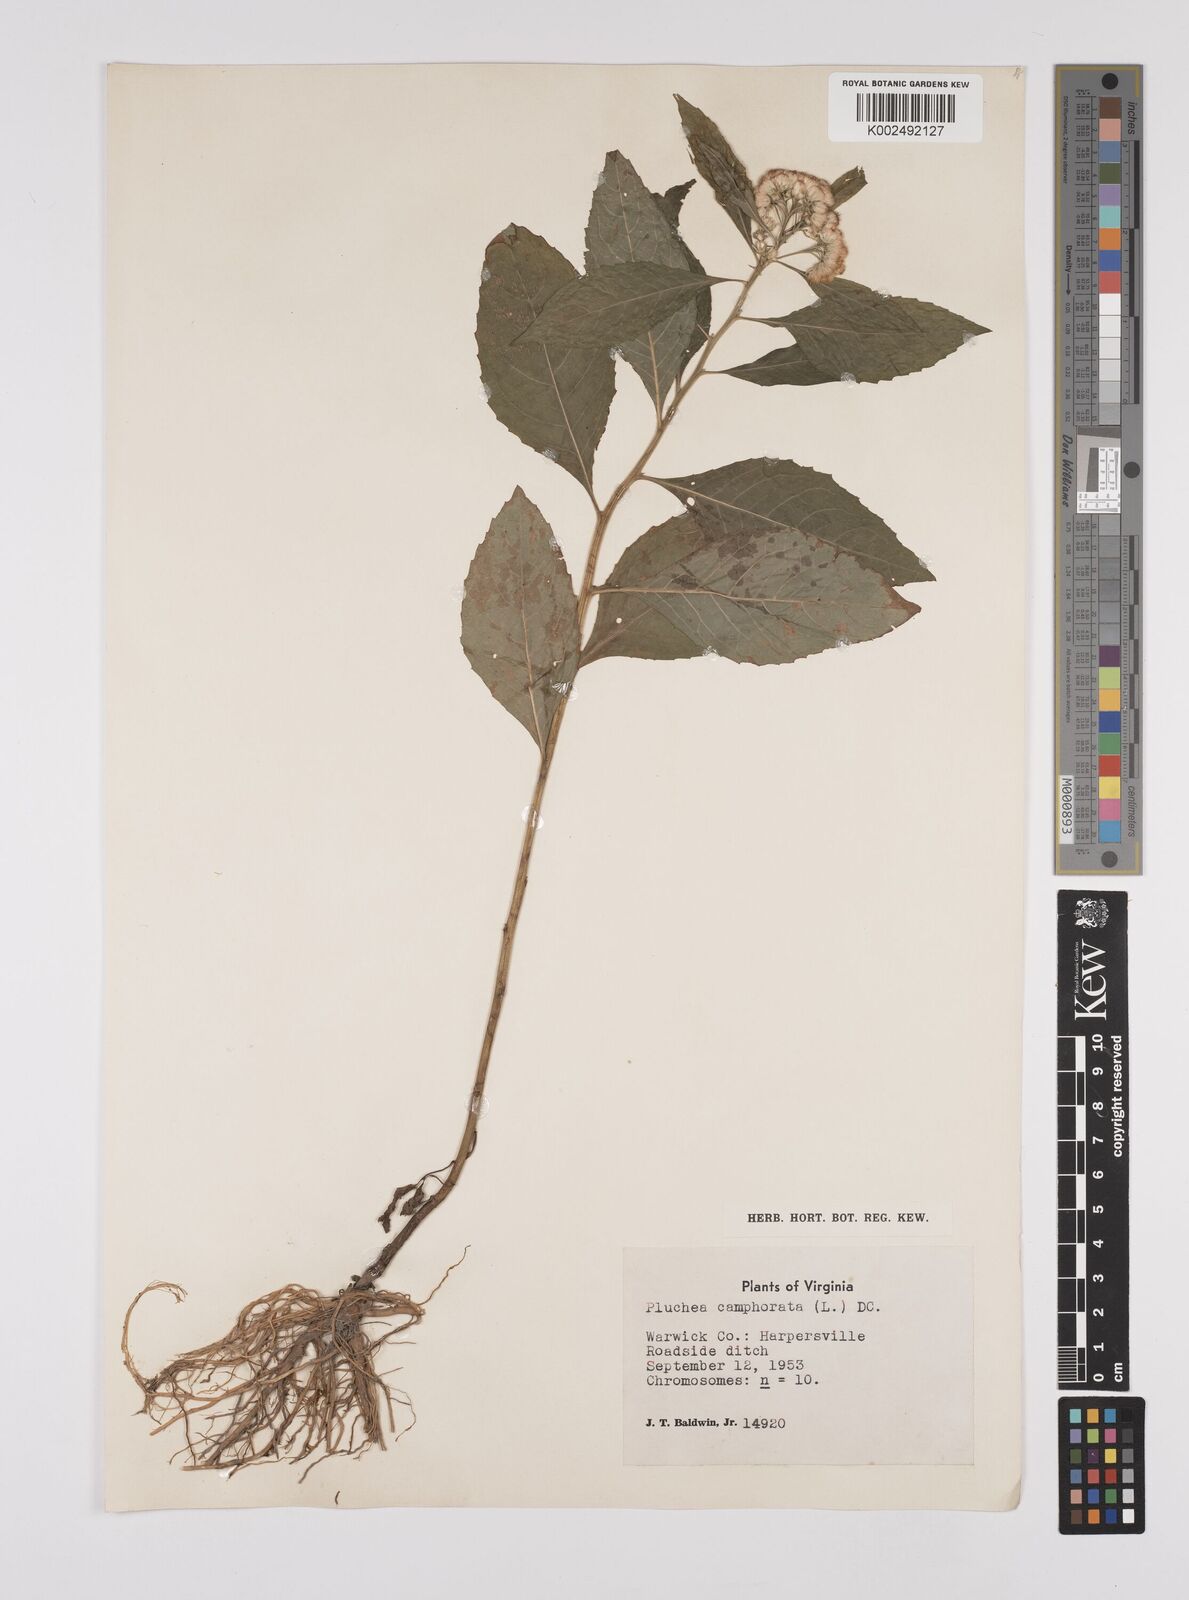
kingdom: Plantae
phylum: Tracheophyta
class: Magnoliopsida
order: Asterales
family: Asteraceae
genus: Pluchea
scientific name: Pluchea camphorata
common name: Camphor pluchea
